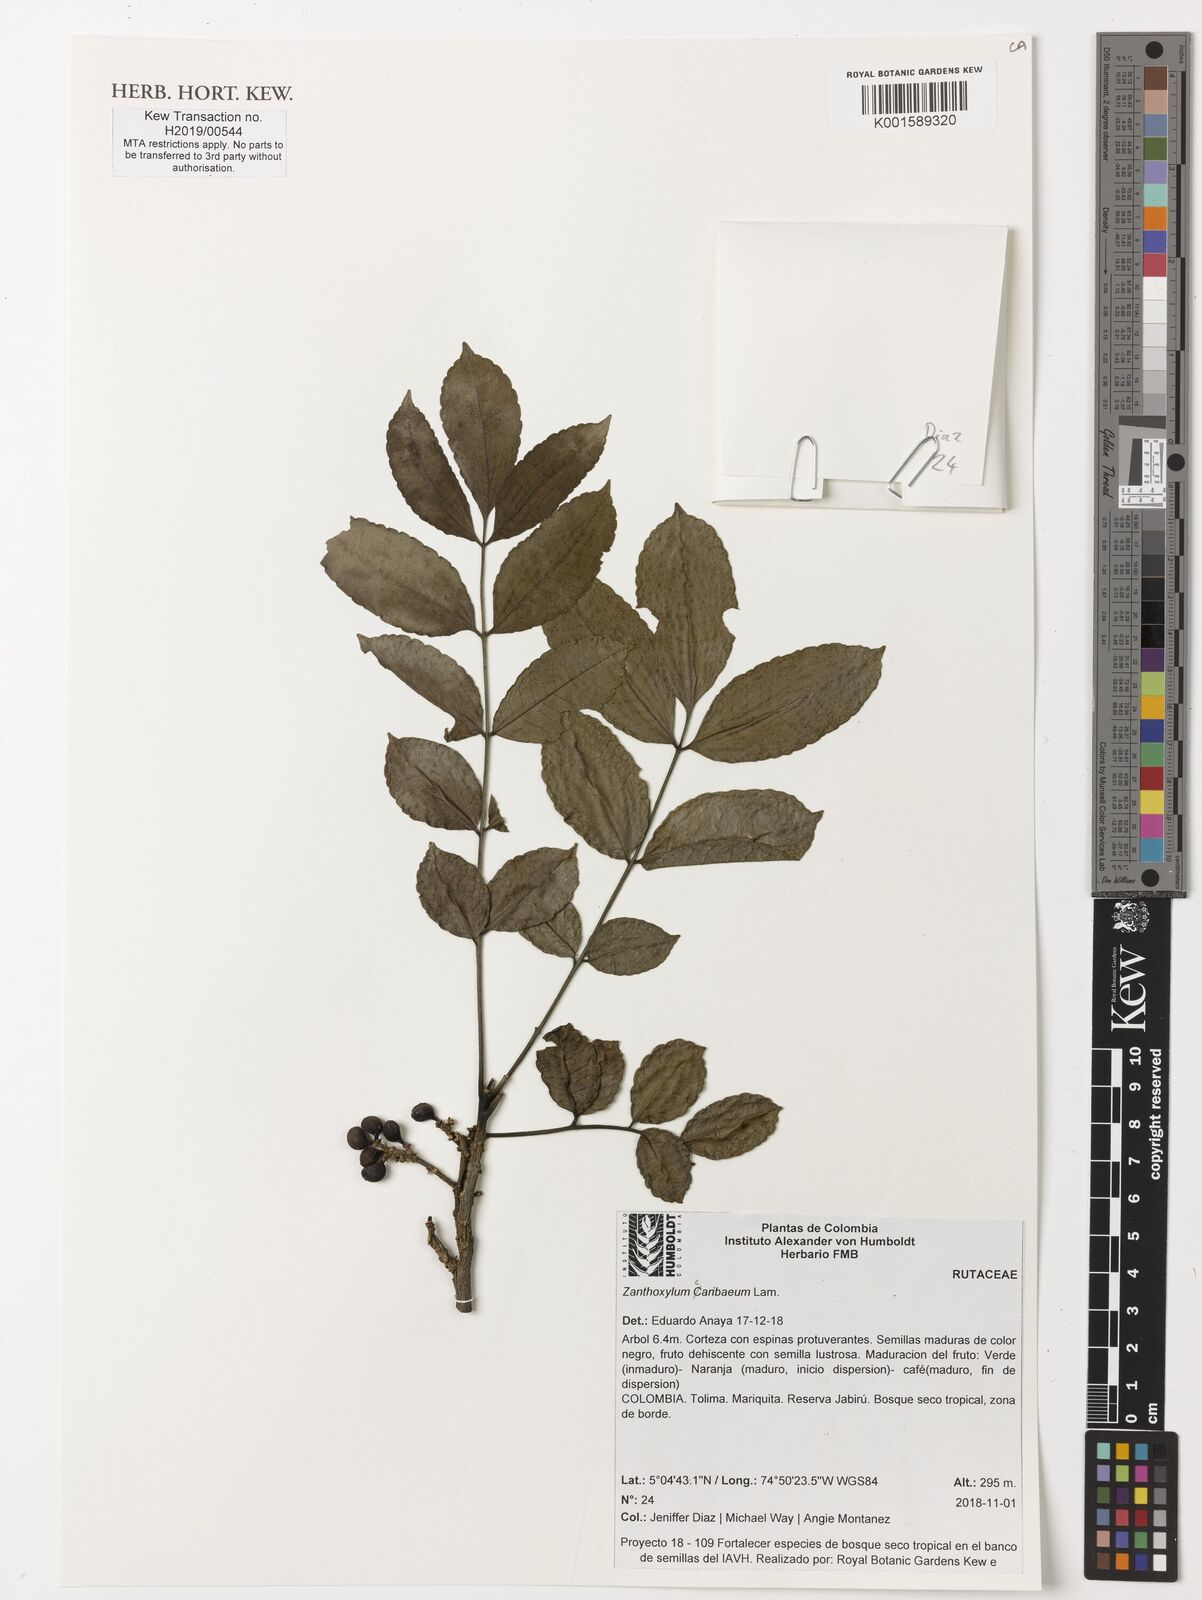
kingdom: Plantae
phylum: Tracheophyta
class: Magnoliopsida
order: Sapindales
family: Rutaceae
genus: Zanthoxylum
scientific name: Zanthoxylum caribaeum
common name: Prickly yellow
